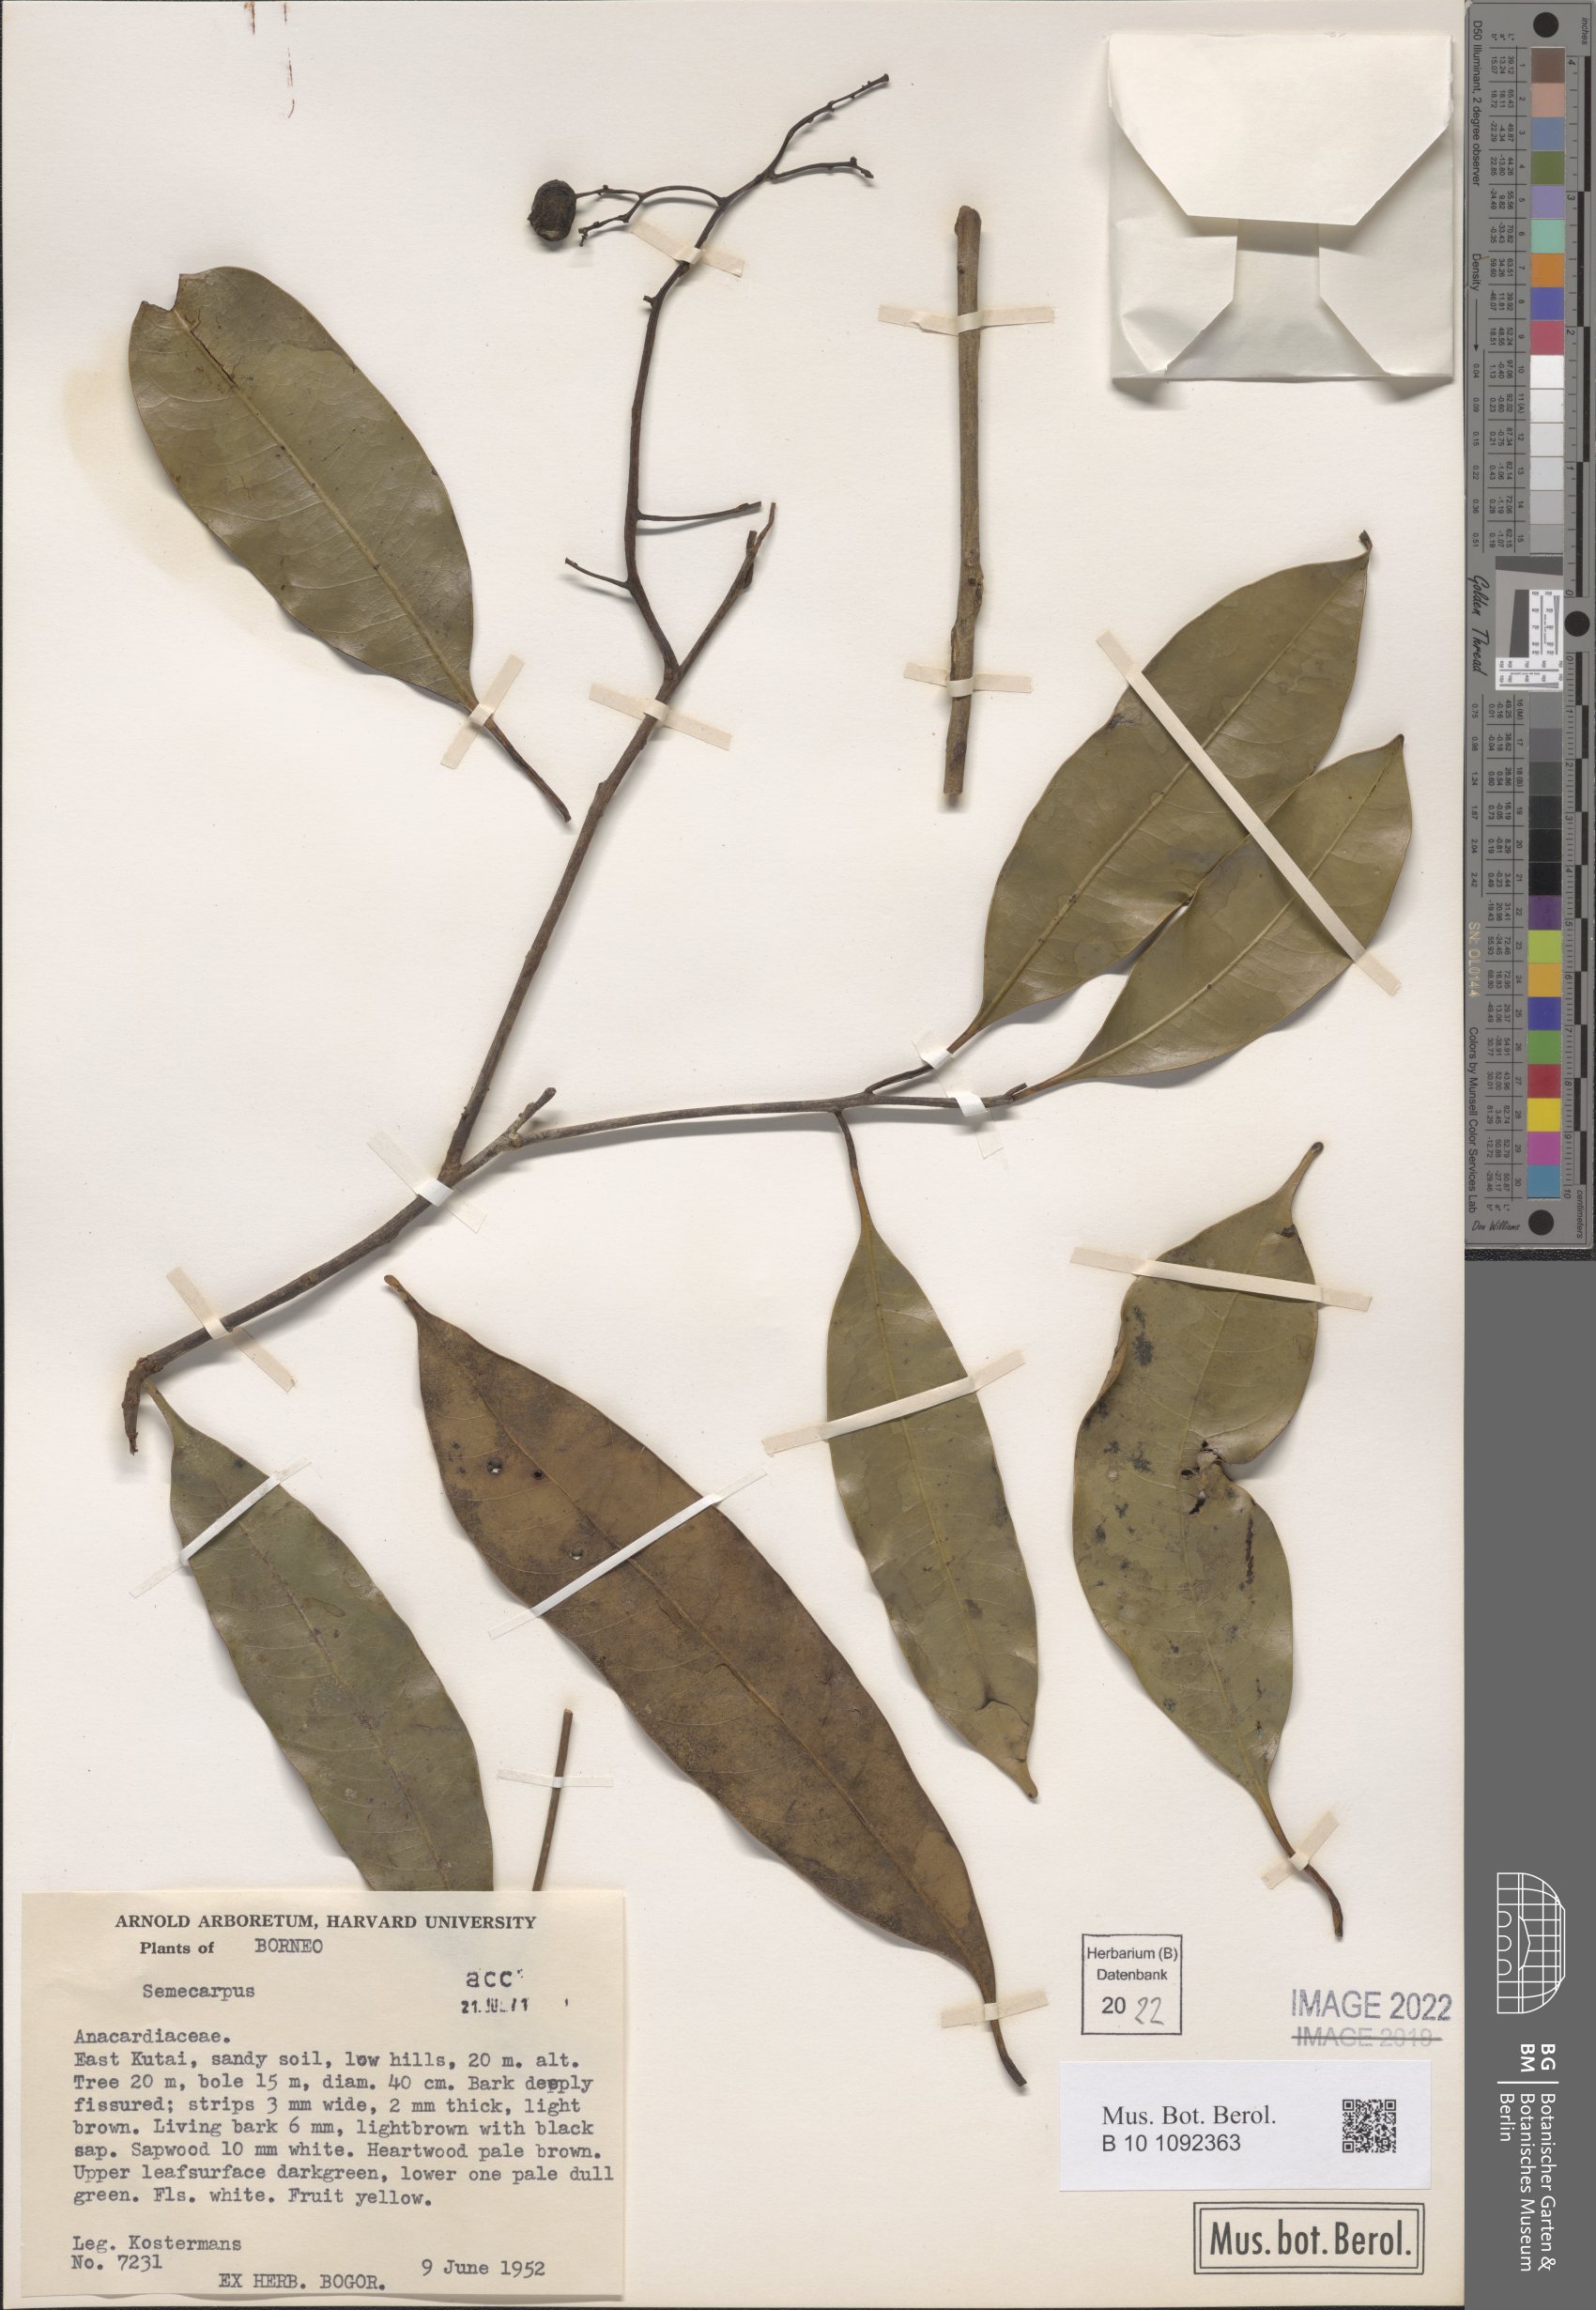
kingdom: Plantae
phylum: Tracheophyta
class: Magnoliopsida
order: Sapindales
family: Anacardiaceae
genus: Semecarpus
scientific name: Semecarpus
